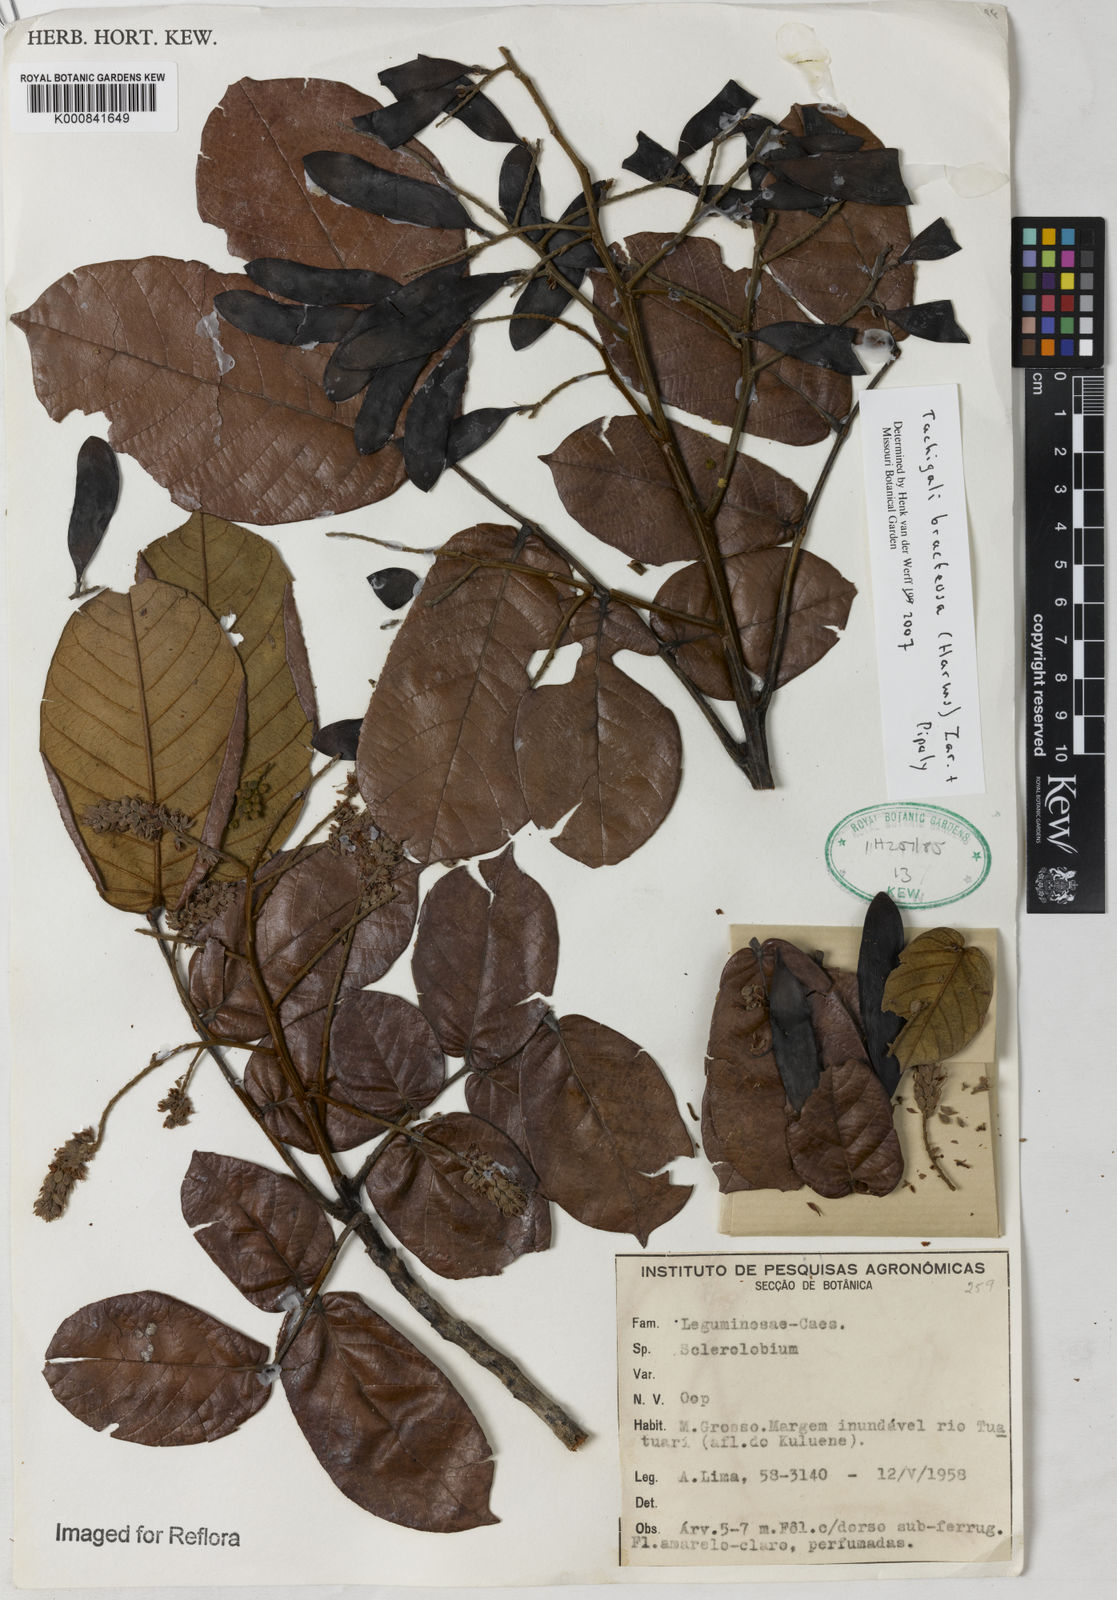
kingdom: Plantae
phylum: Tracheophyta
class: Magnoliopsida
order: Fabales
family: Fabaceae
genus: Tachigali
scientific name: Tachigali bracteosa
